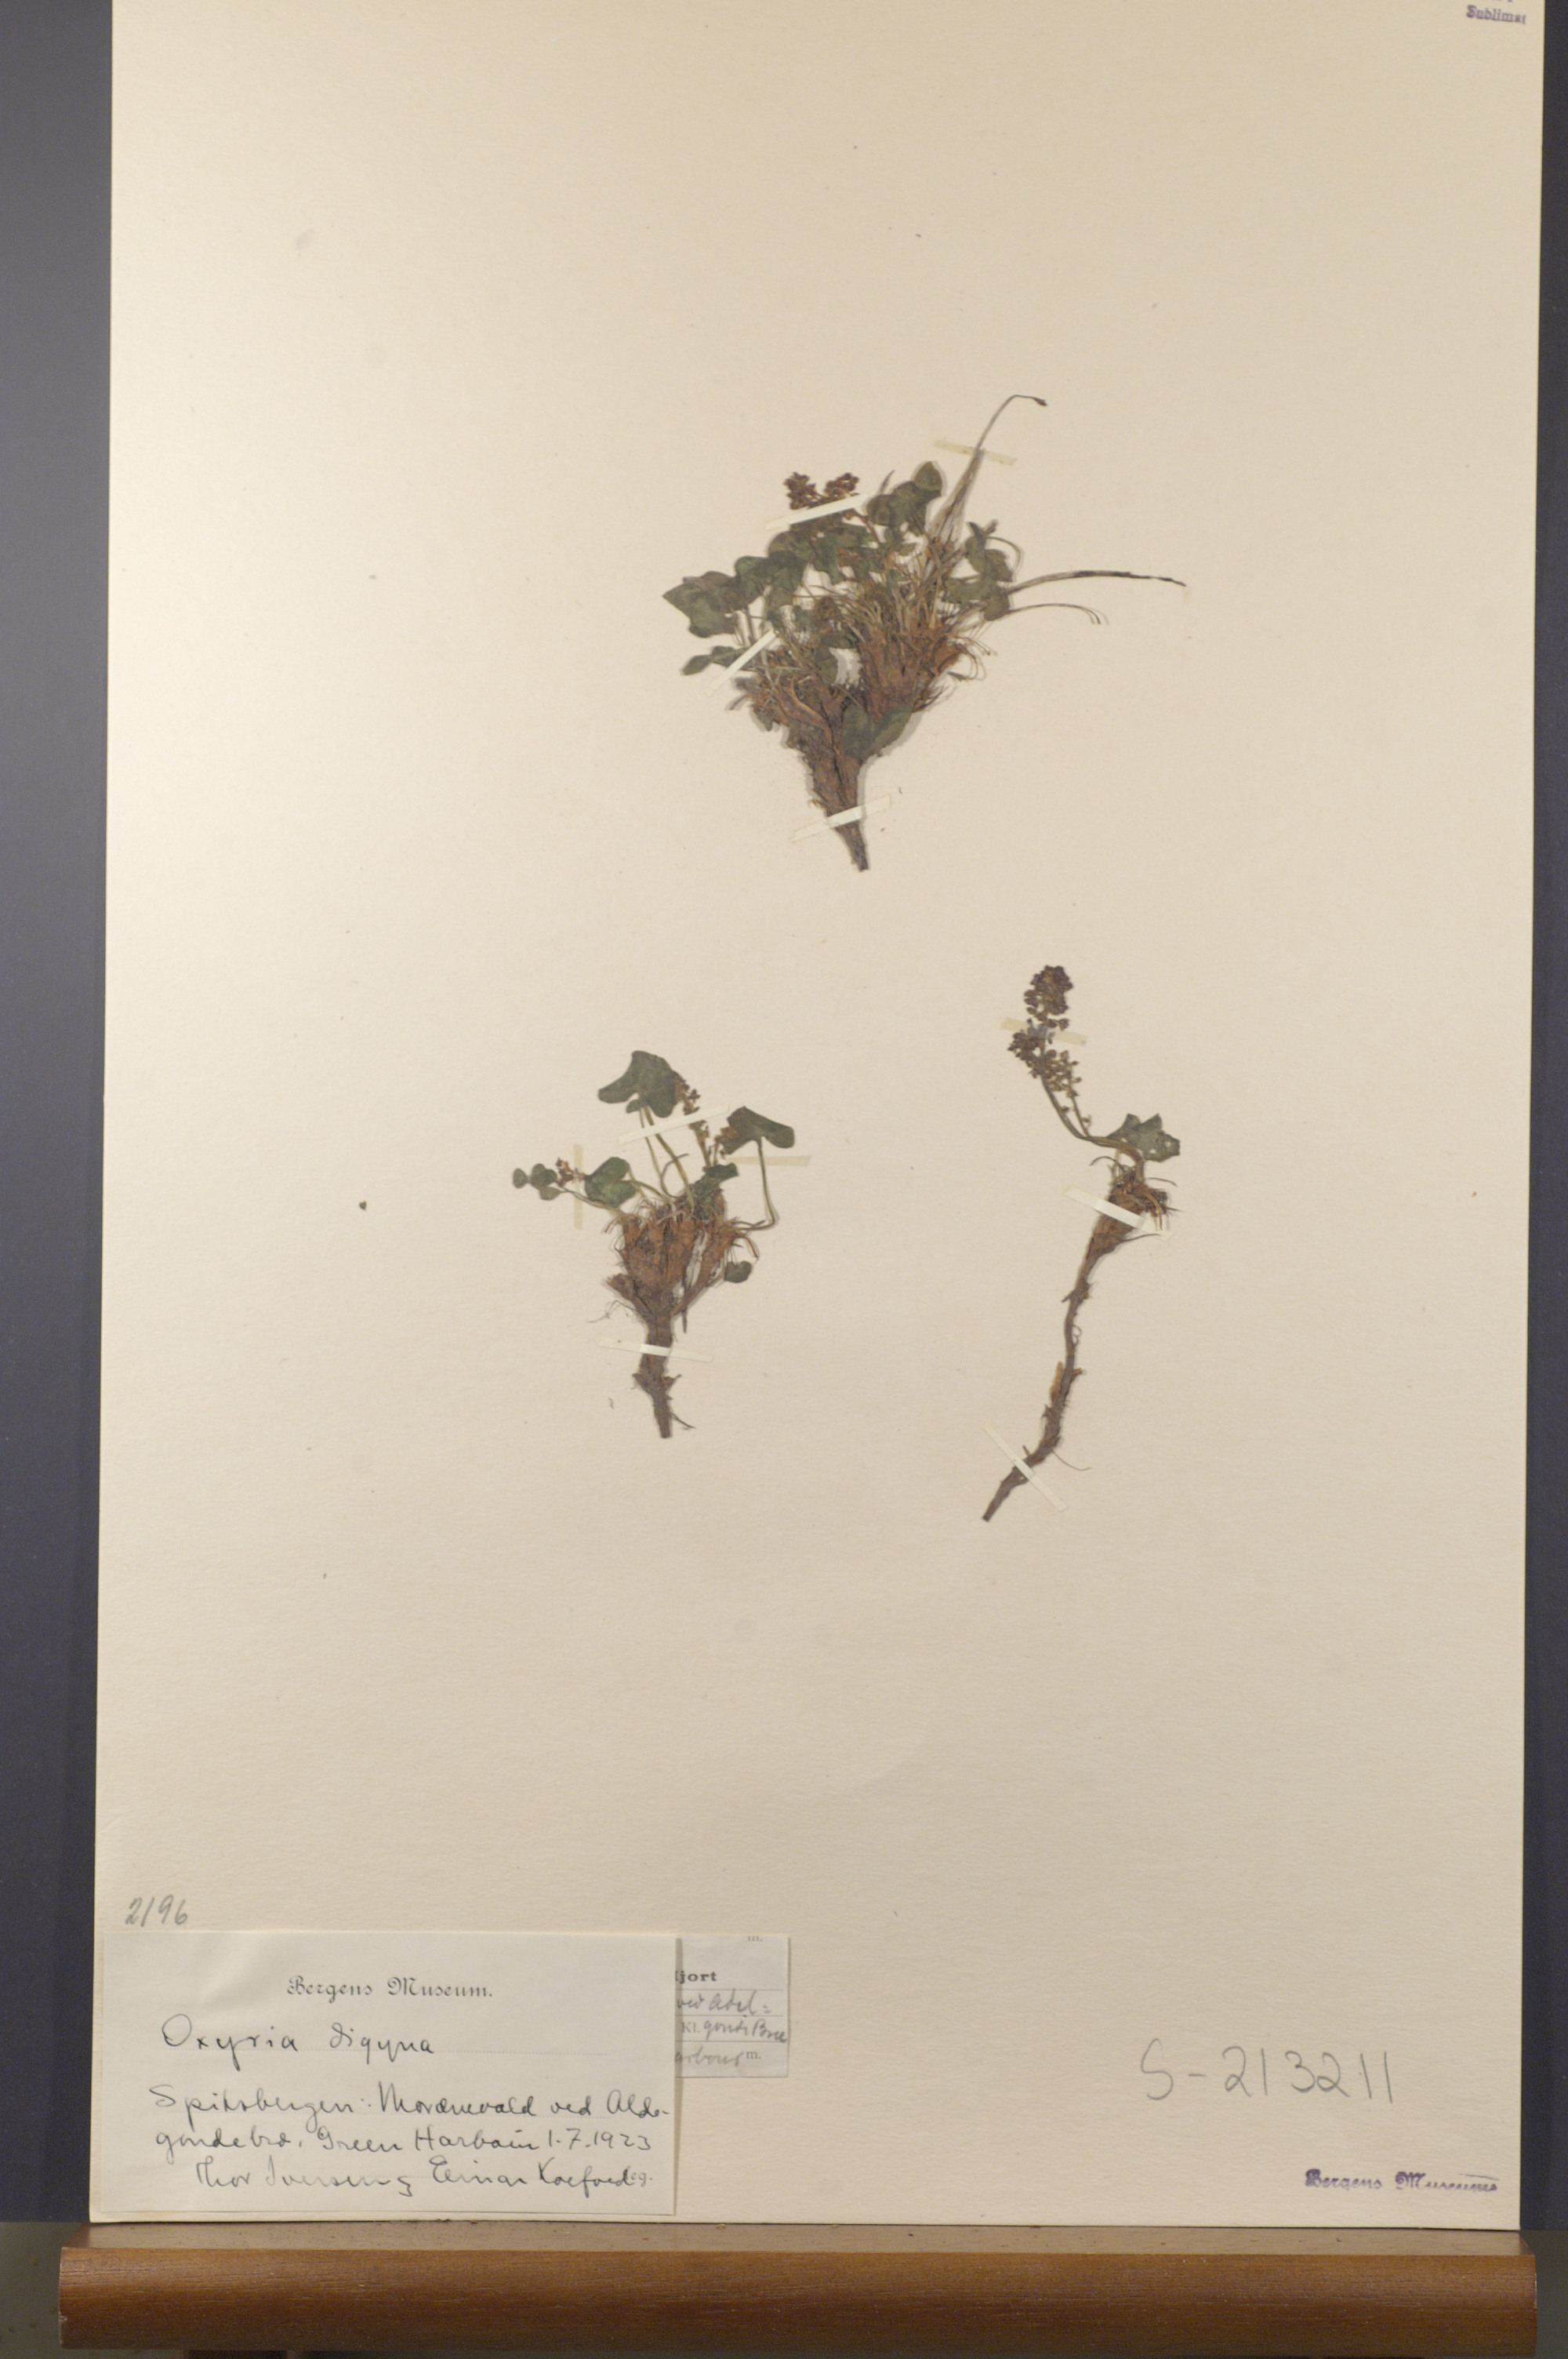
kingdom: Plantae
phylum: Tracheophyta
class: Magnoliopsida
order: Caryophyllales
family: Polygonaceae
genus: Oxyria
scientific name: Oxyria digyna
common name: Alpine mountain-sorrel
